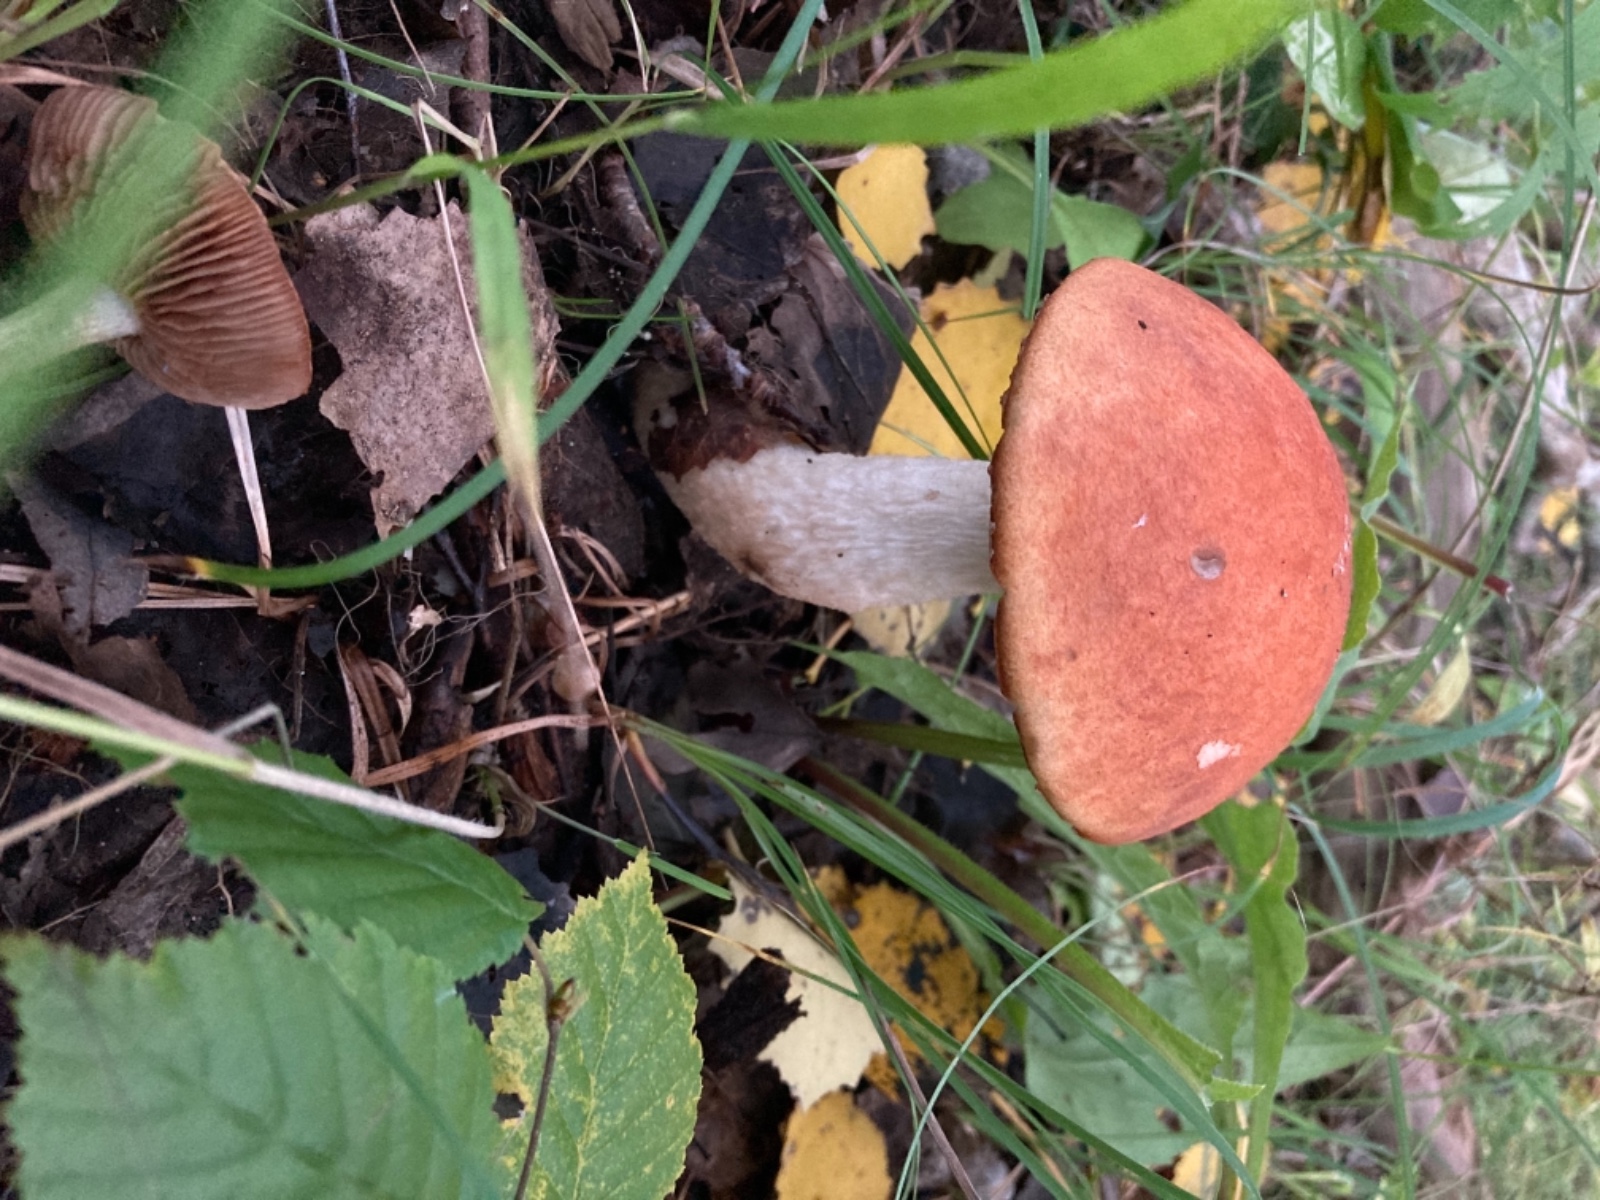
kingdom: Fungi
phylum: Basidiomycota
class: Agaricomycetes
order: Boletales
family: Boletaceae
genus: Leccinum
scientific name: Leccinum albostipitatum
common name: aspe-skælrørhat
